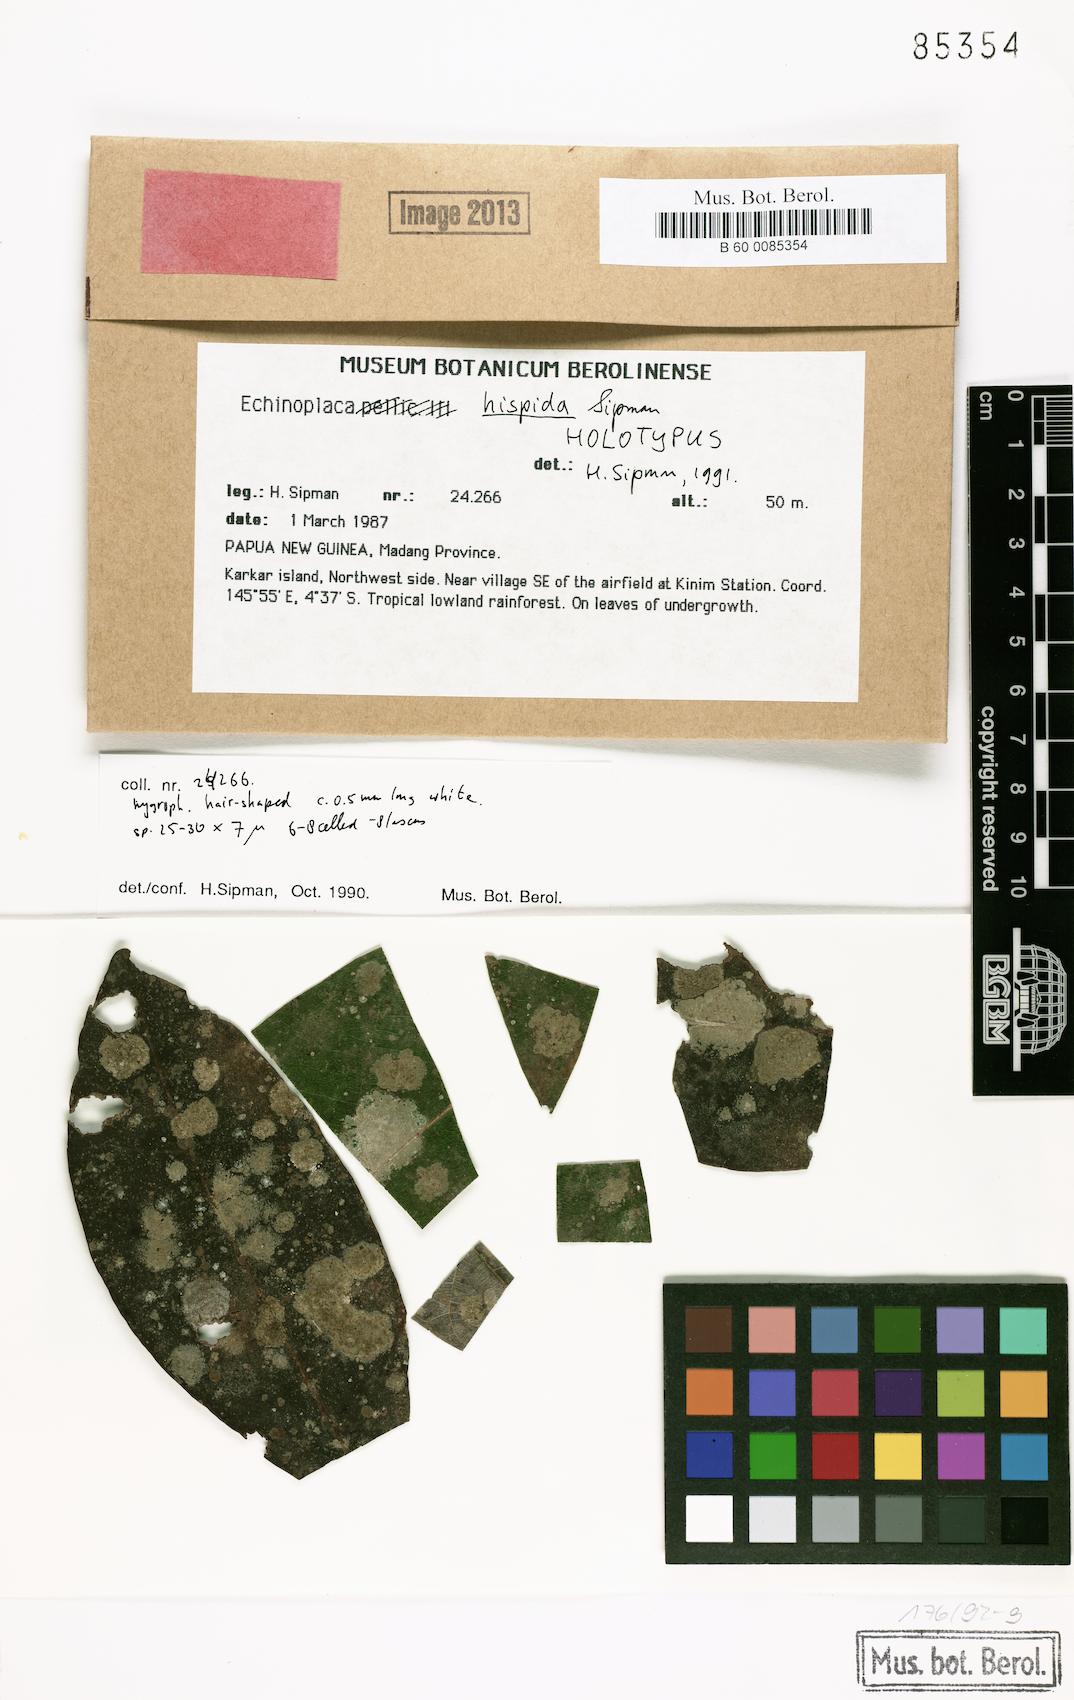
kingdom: Fungi
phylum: Ascomycota
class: Lecanoromycetes
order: Ostropales
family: Gomphillaceae
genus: Echinoplaca
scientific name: Echinoplaca
